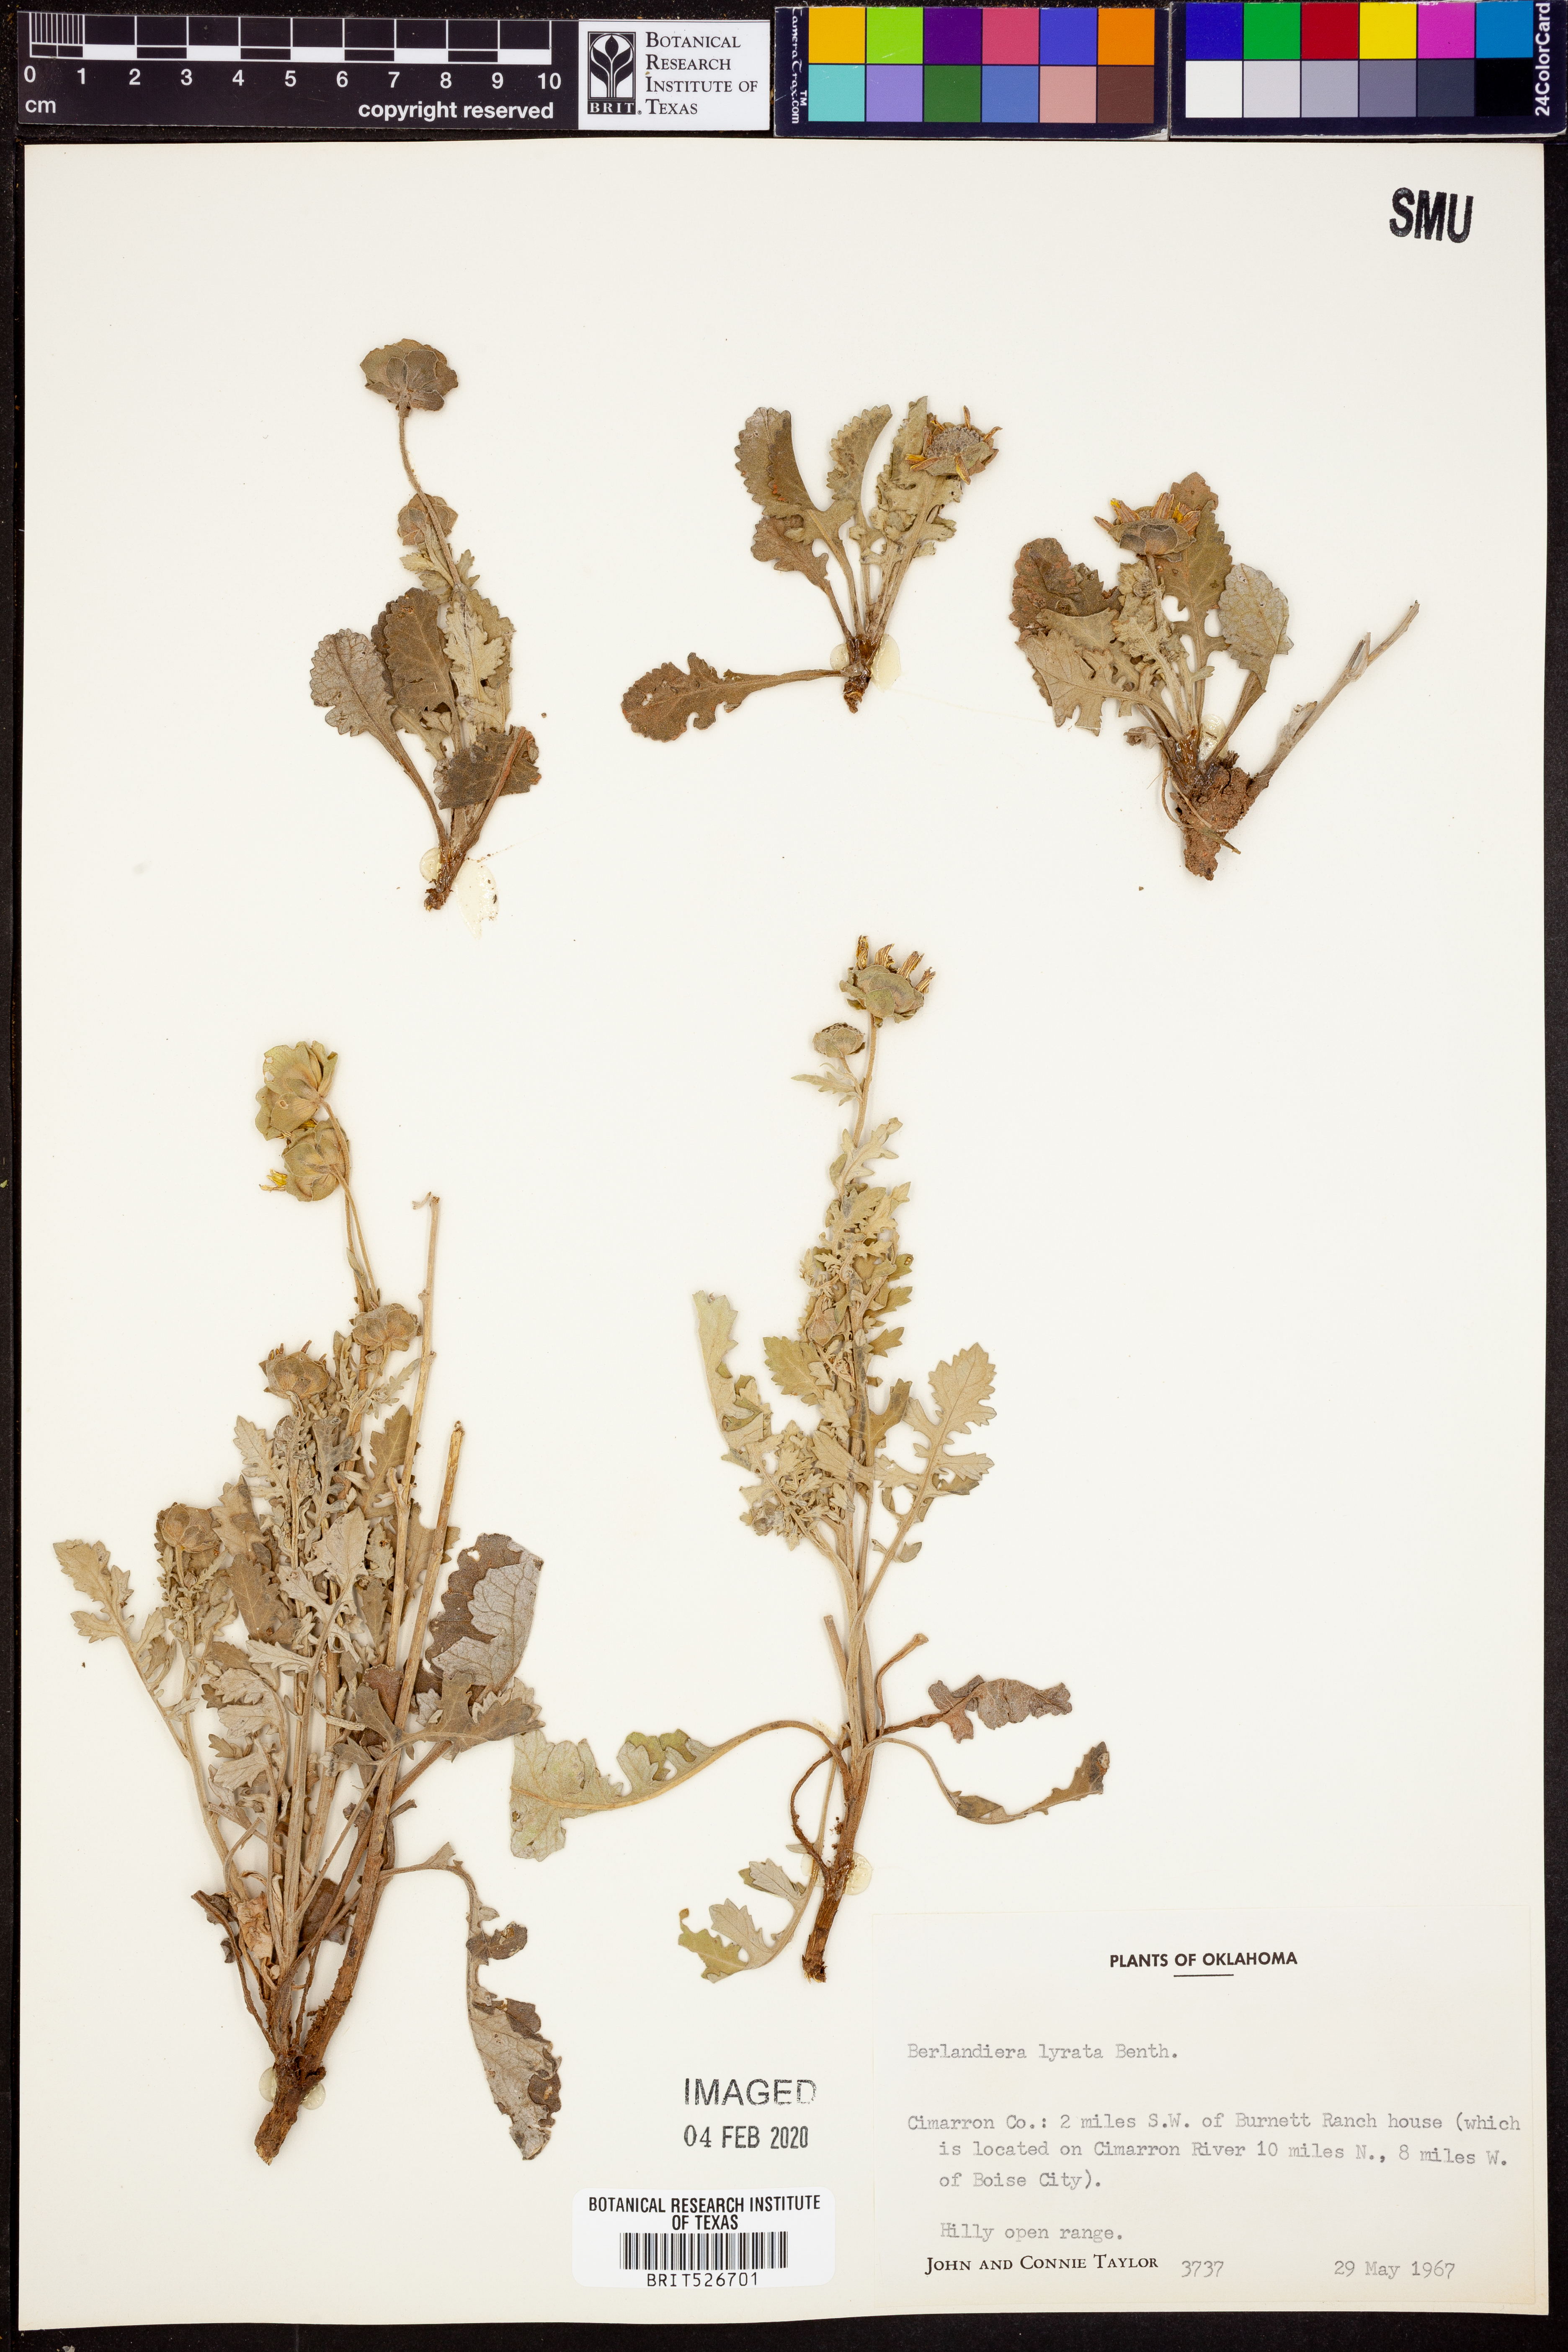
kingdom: Plantae
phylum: Tracheophyta
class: Magnoliopsida
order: Asterales
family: Asteraceae
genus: Berlandiera
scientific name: Berlandiera lyrata
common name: Chocolate-flower
